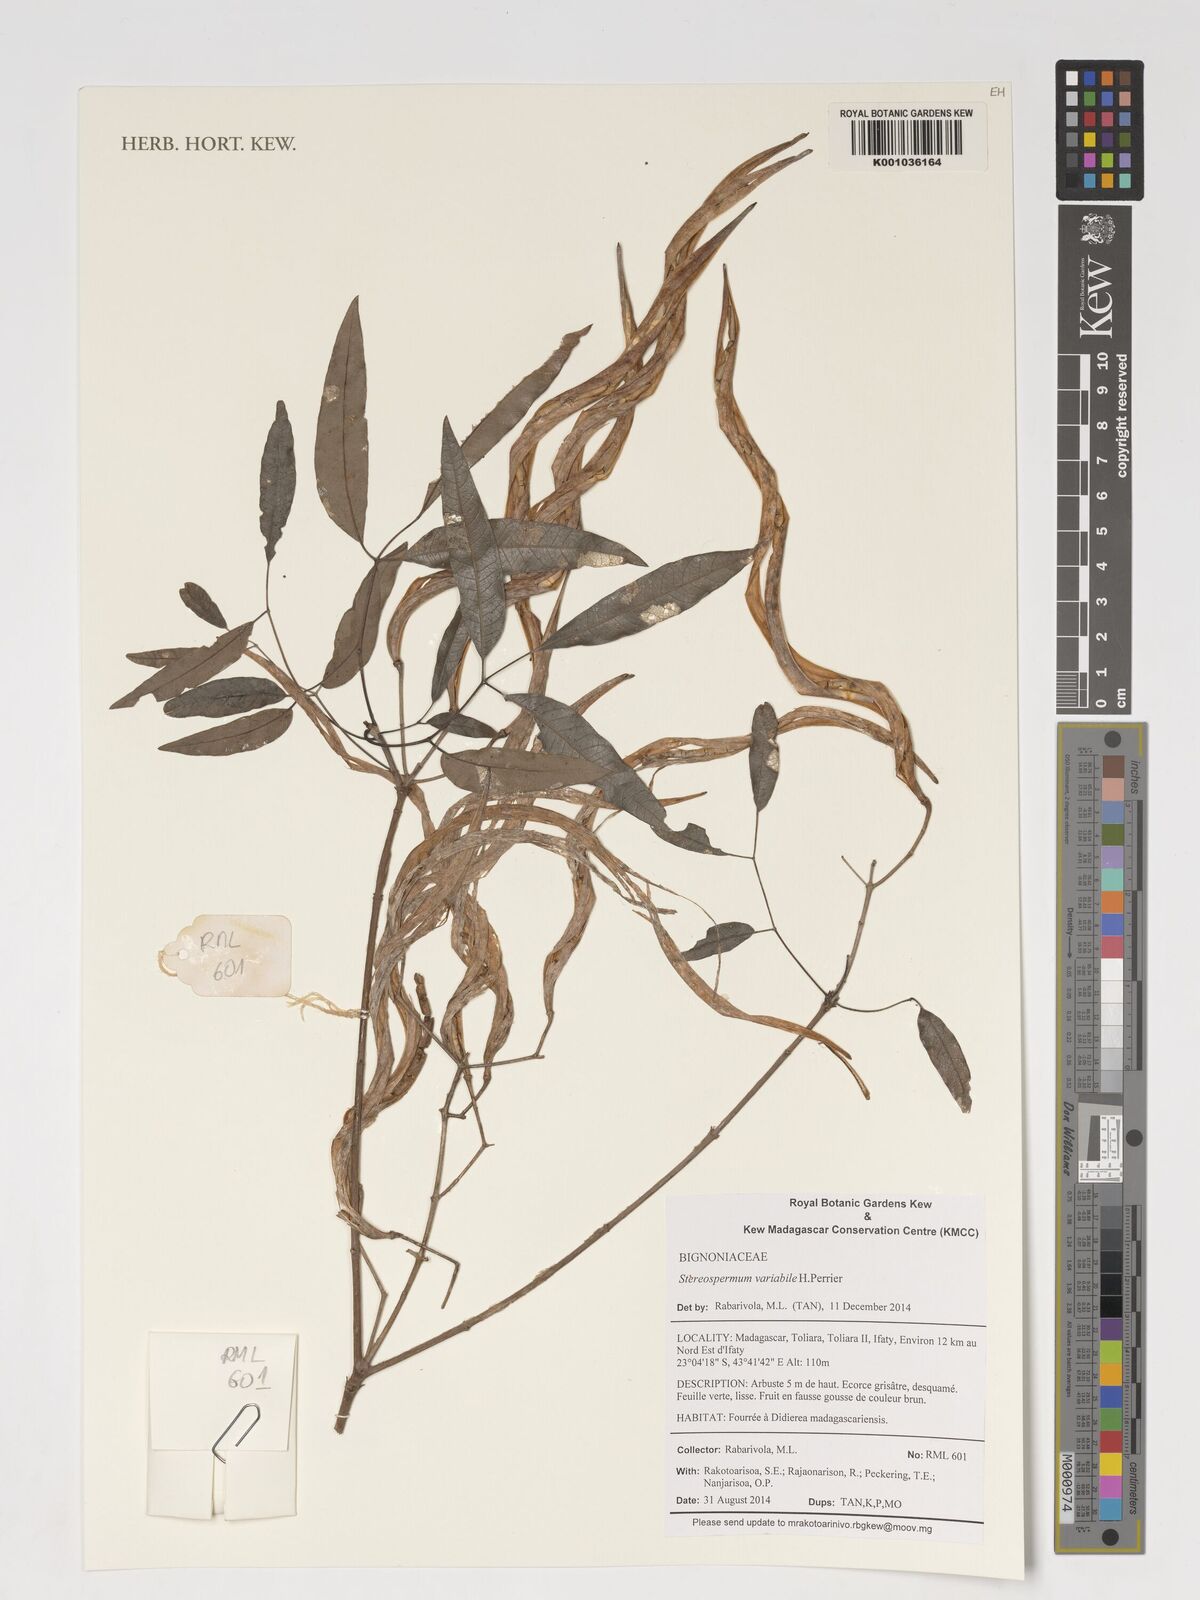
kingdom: Plantae
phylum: Tracheophyta
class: Magnoliopsida
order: Lamiales
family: Bignoniaceae
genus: Stereospermum
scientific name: Stereospermum variabile
